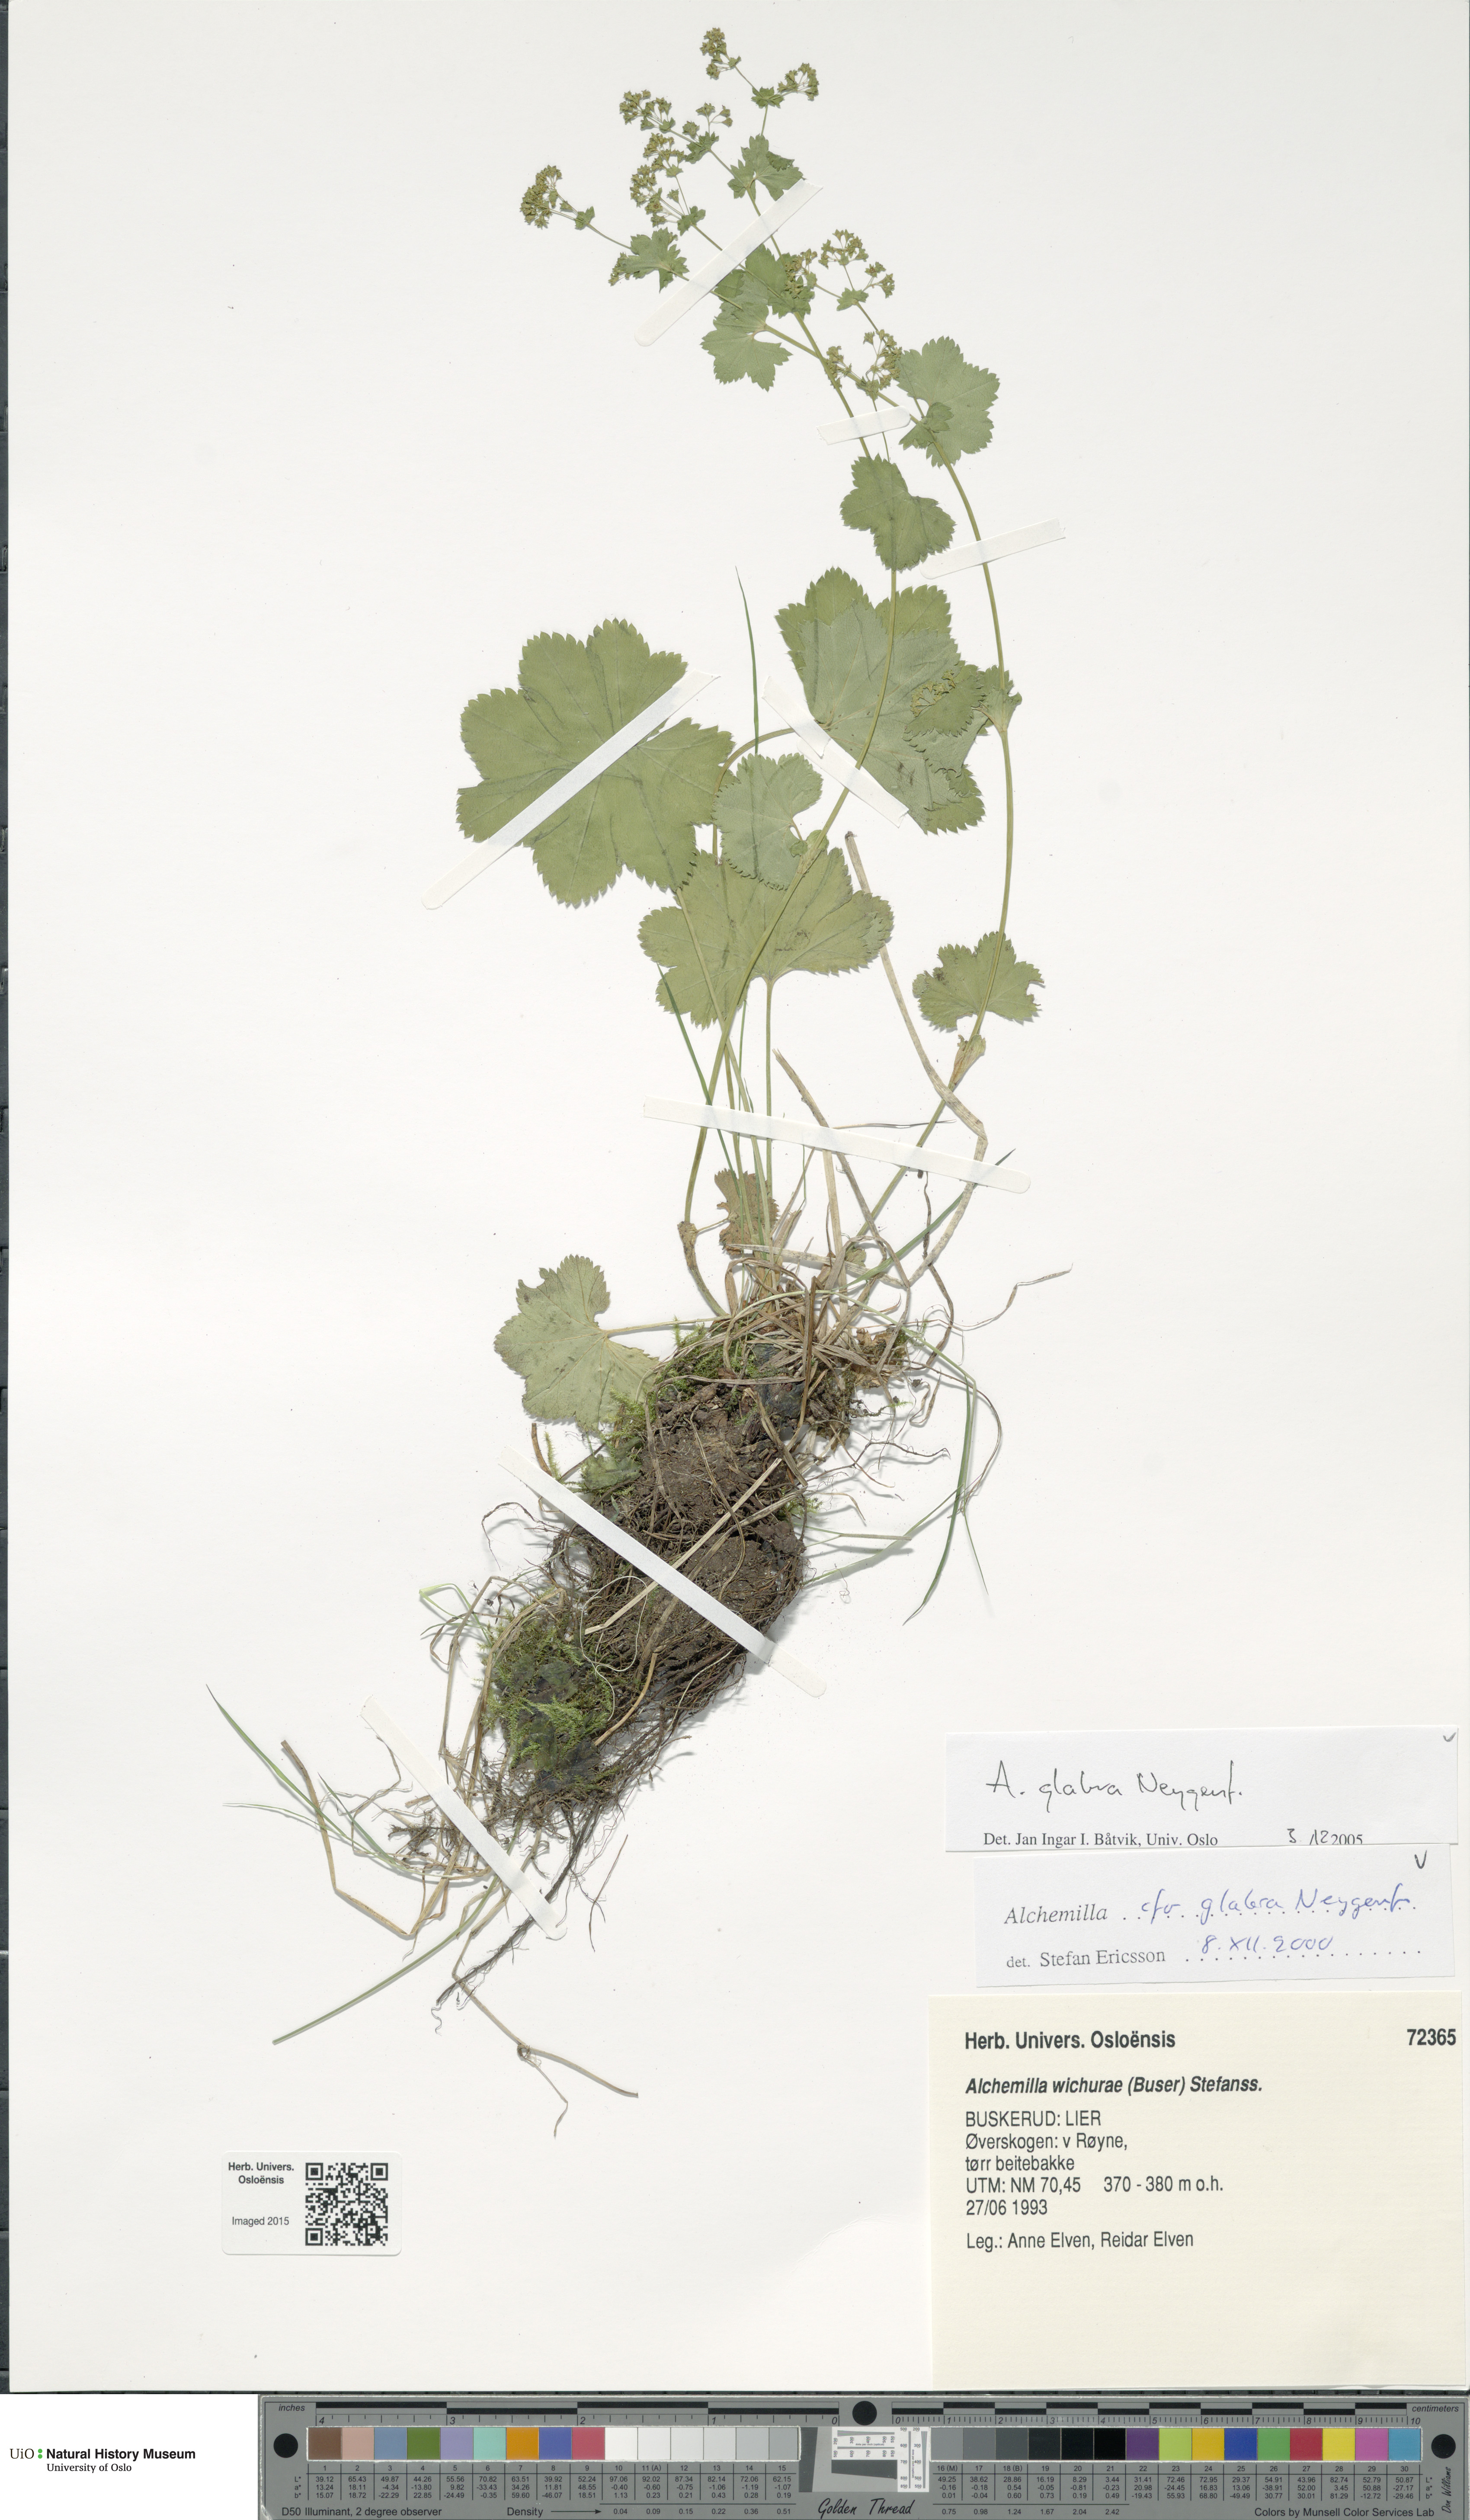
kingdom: Plantae
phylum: Tracheophyta
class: Magnoliopsida
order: Rosales
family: Rosaceae
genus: Alchemilla
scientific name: Alchemilla glabra
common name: Smooth lady's-mantle
